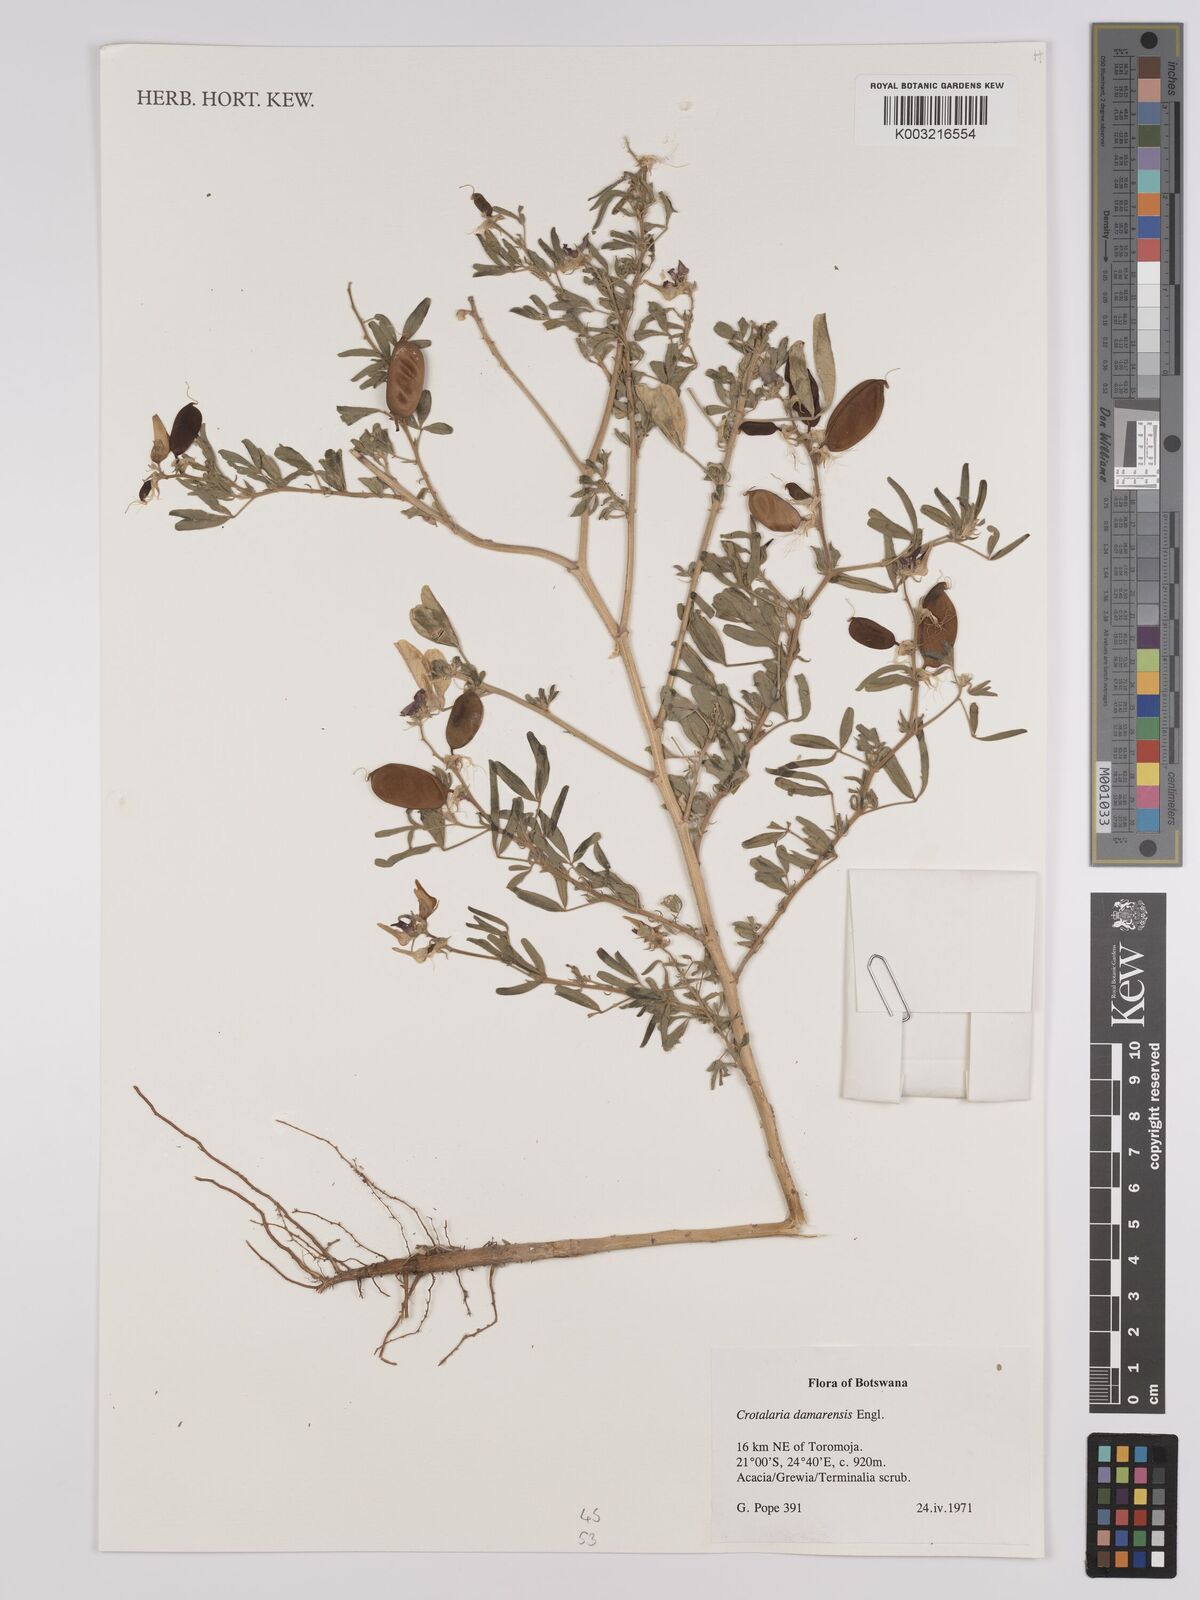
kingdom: Plantae
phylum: Tracheophyta
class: Magnoliopsida
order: Fabales
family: Fabaceae
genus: Crotalaria
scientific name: Crotalaria damarensis
